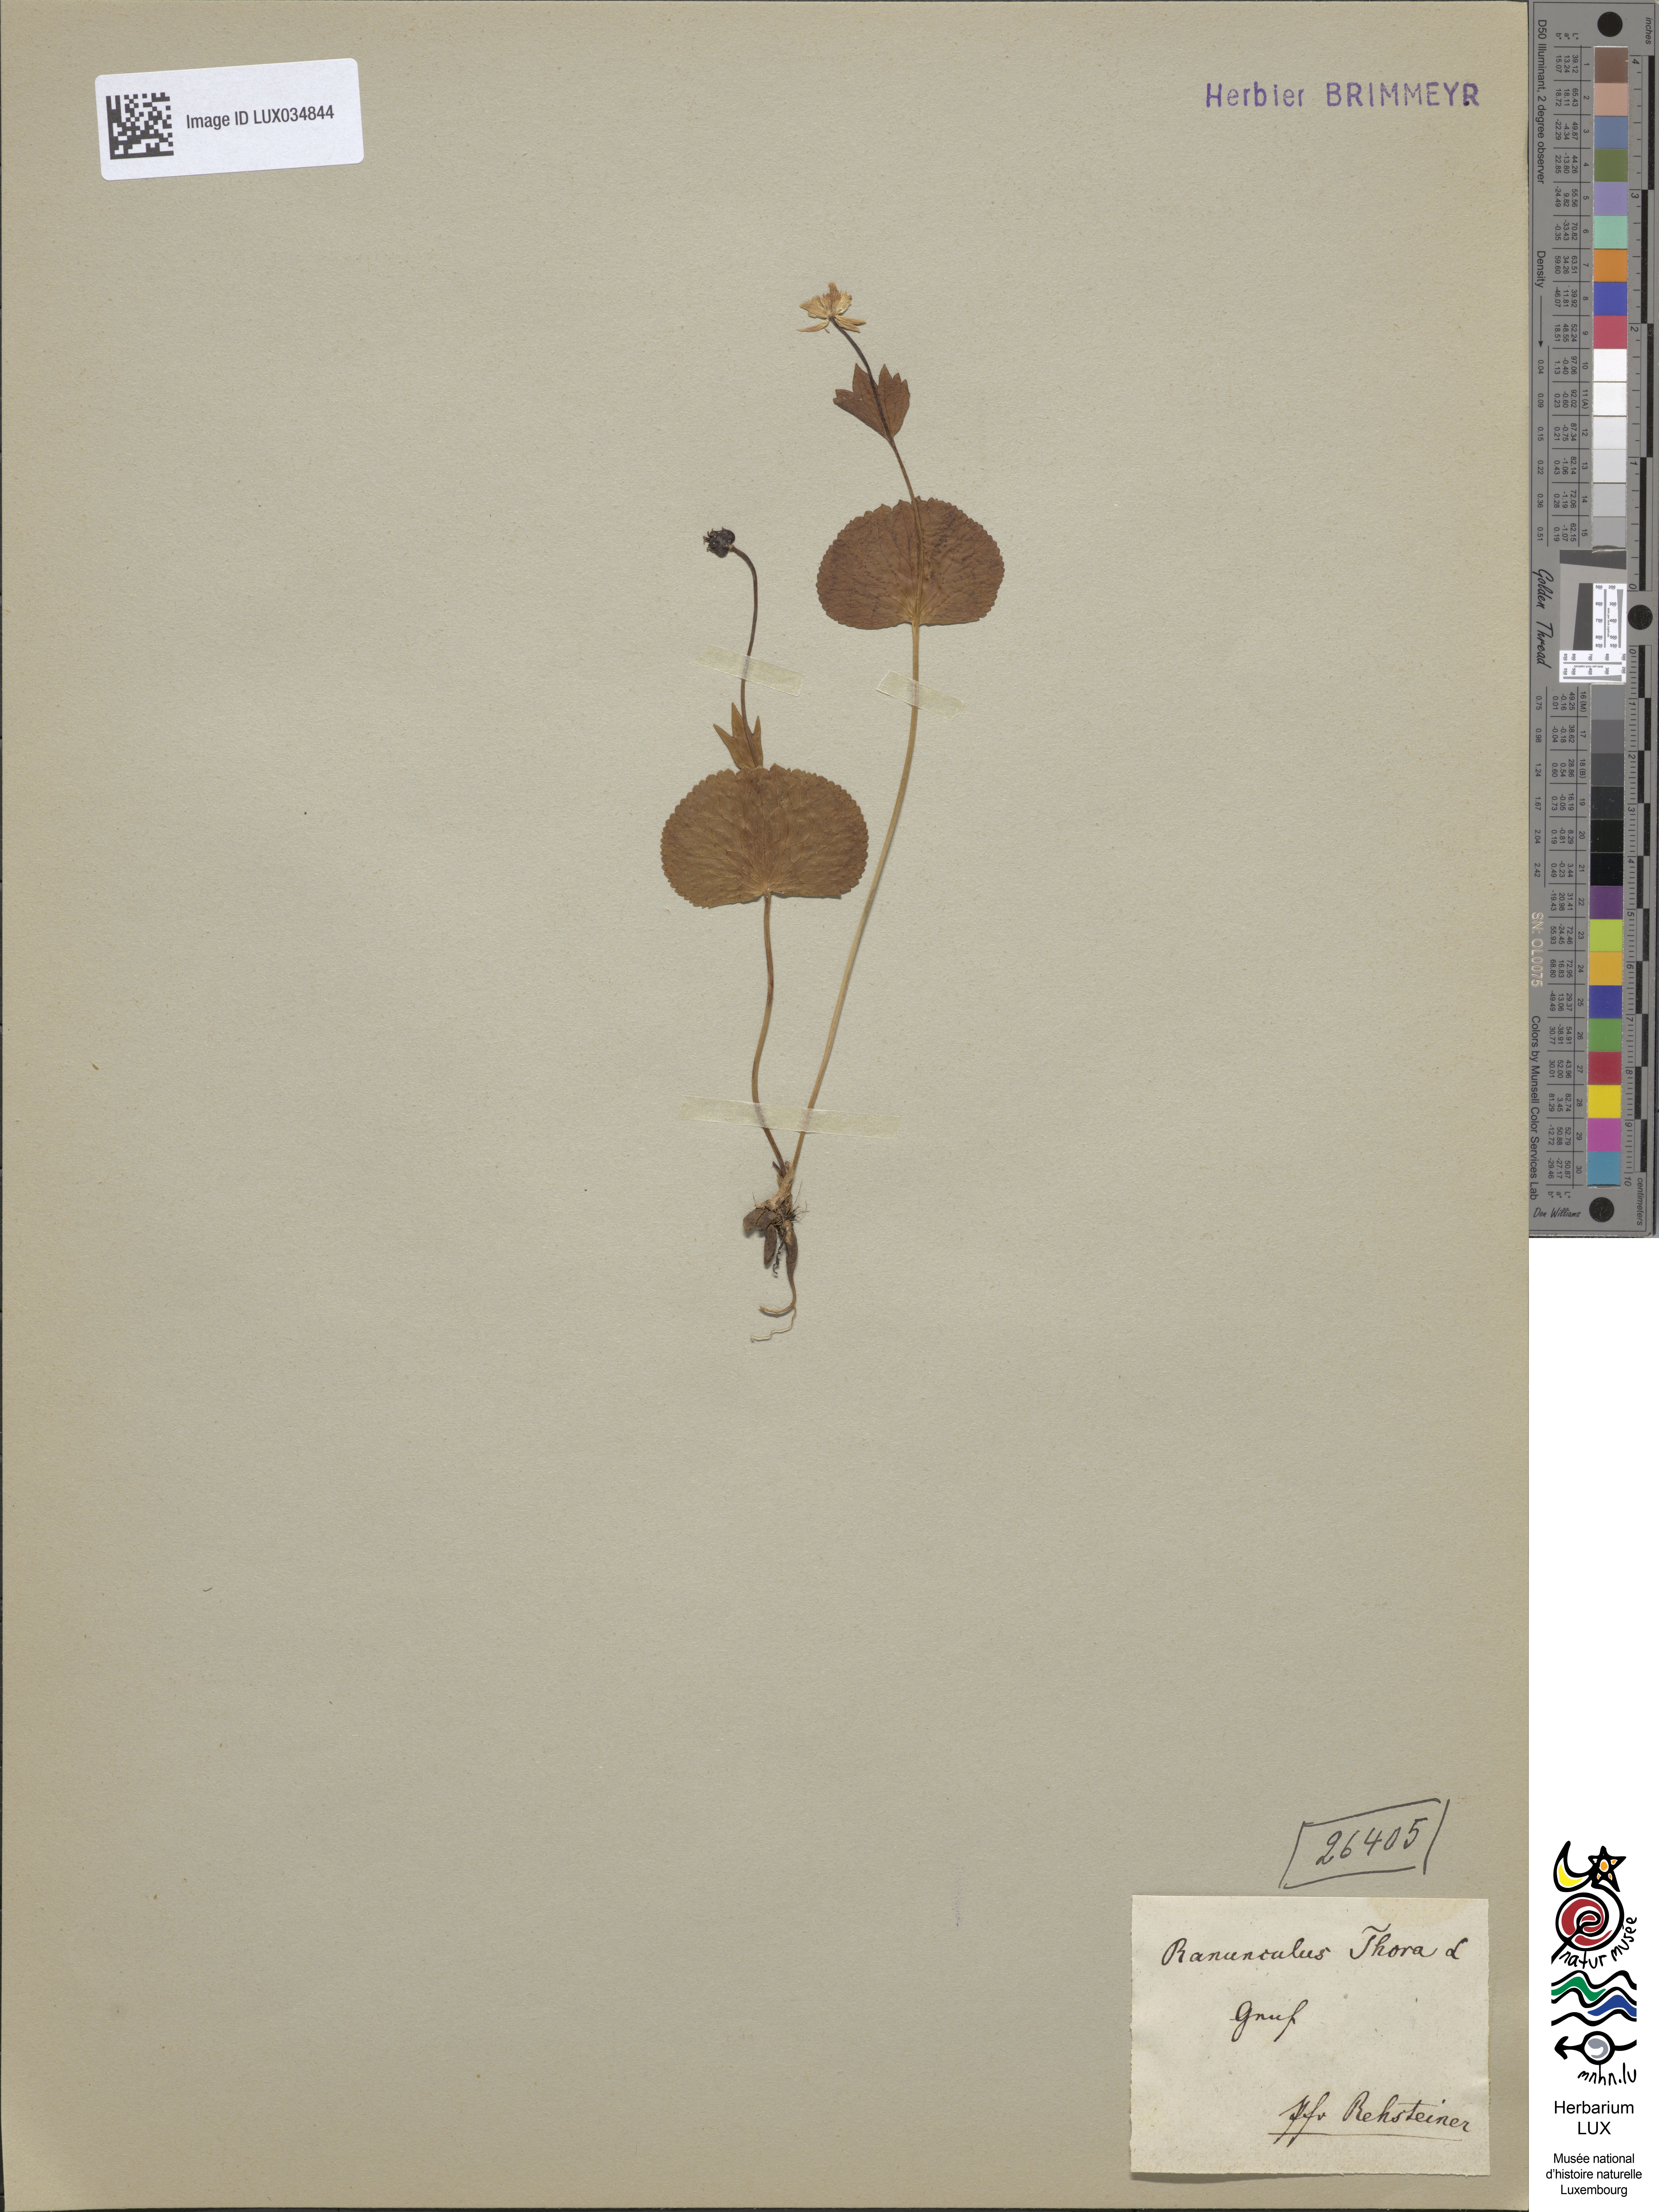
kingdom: Plantae
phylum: Tracheophyta
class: Magnoliopsida
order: Ranunculales
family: Ranunculaceae
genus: Ranunculus
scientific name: Ranunculus thora
